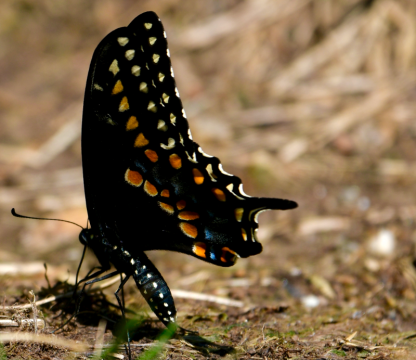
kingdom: Animalia
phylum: Arthropoda
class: Insecta
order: Lepidoptera
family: Papilionidae
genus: Papilio
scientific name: Papilio polyxenes
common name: Black Swallowtail
